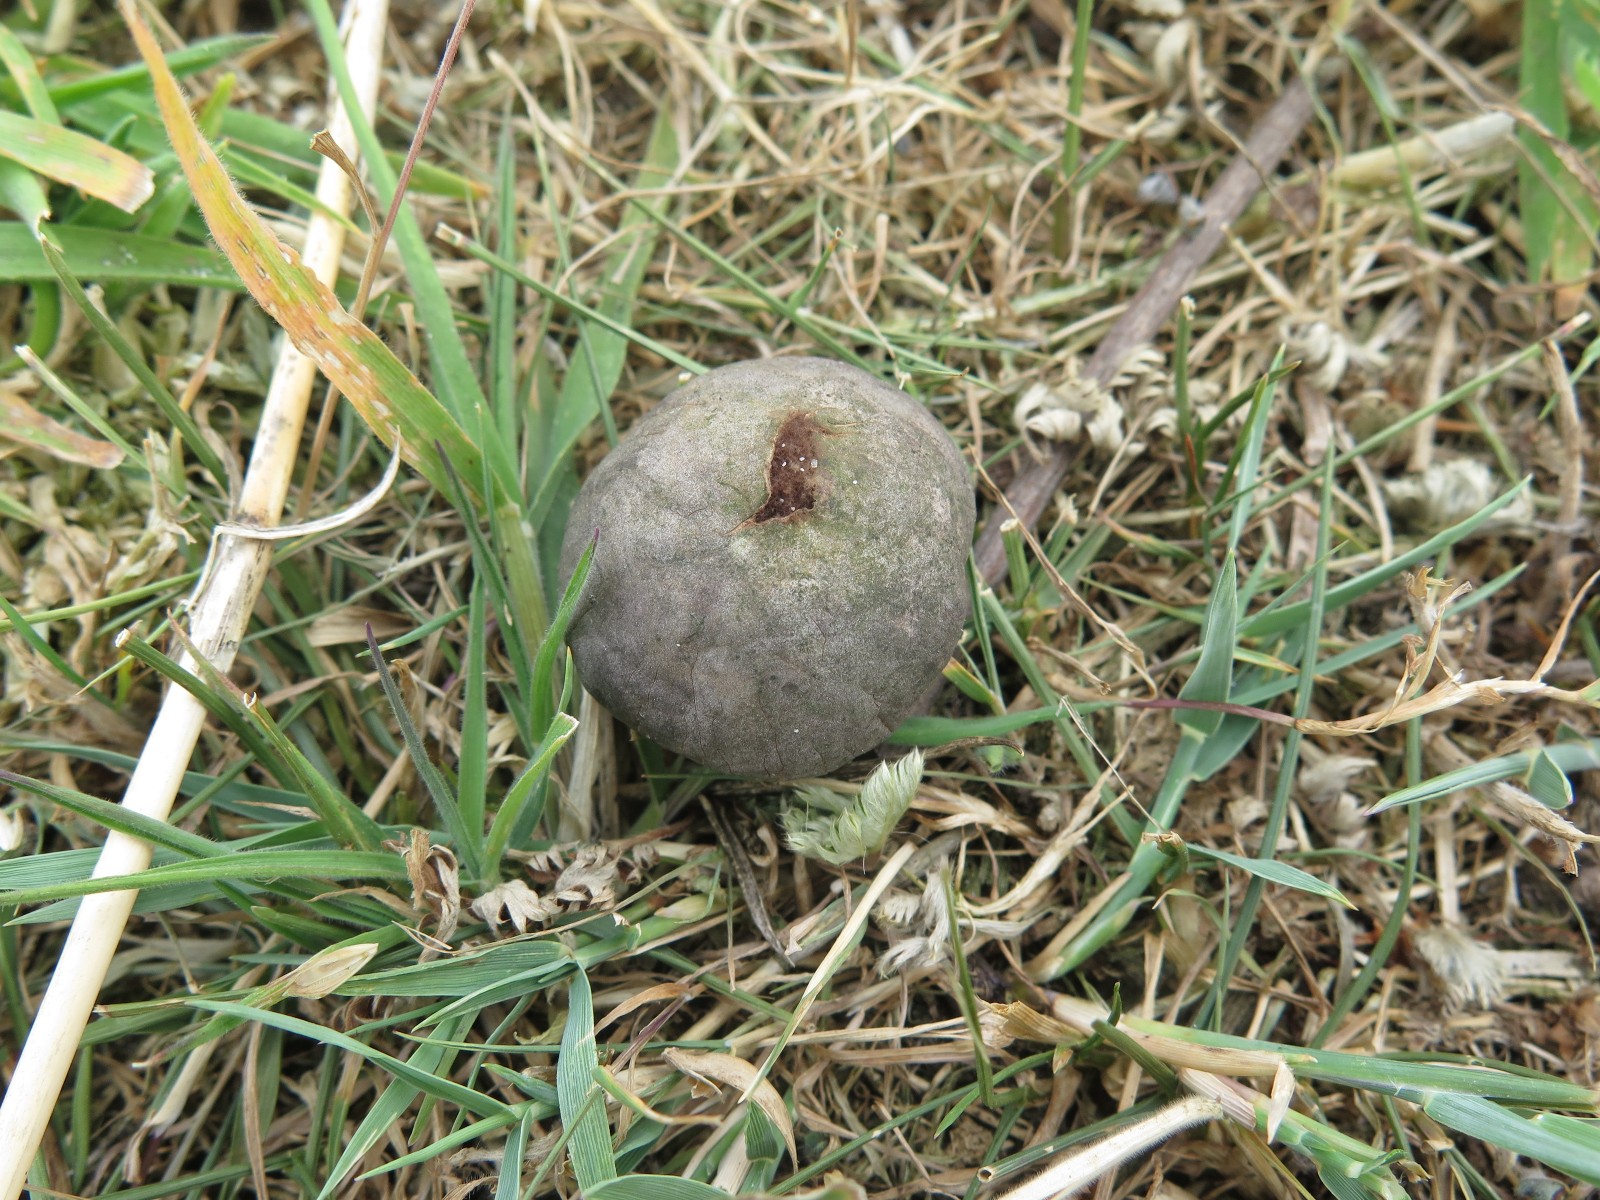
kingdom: Fungi
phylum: Basidiomycota
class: Agaricomycetes
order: Agaricales
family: Lycoperdaceae
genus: Bovista
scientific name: Bovista nigrescens
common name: sortagtig bovist
